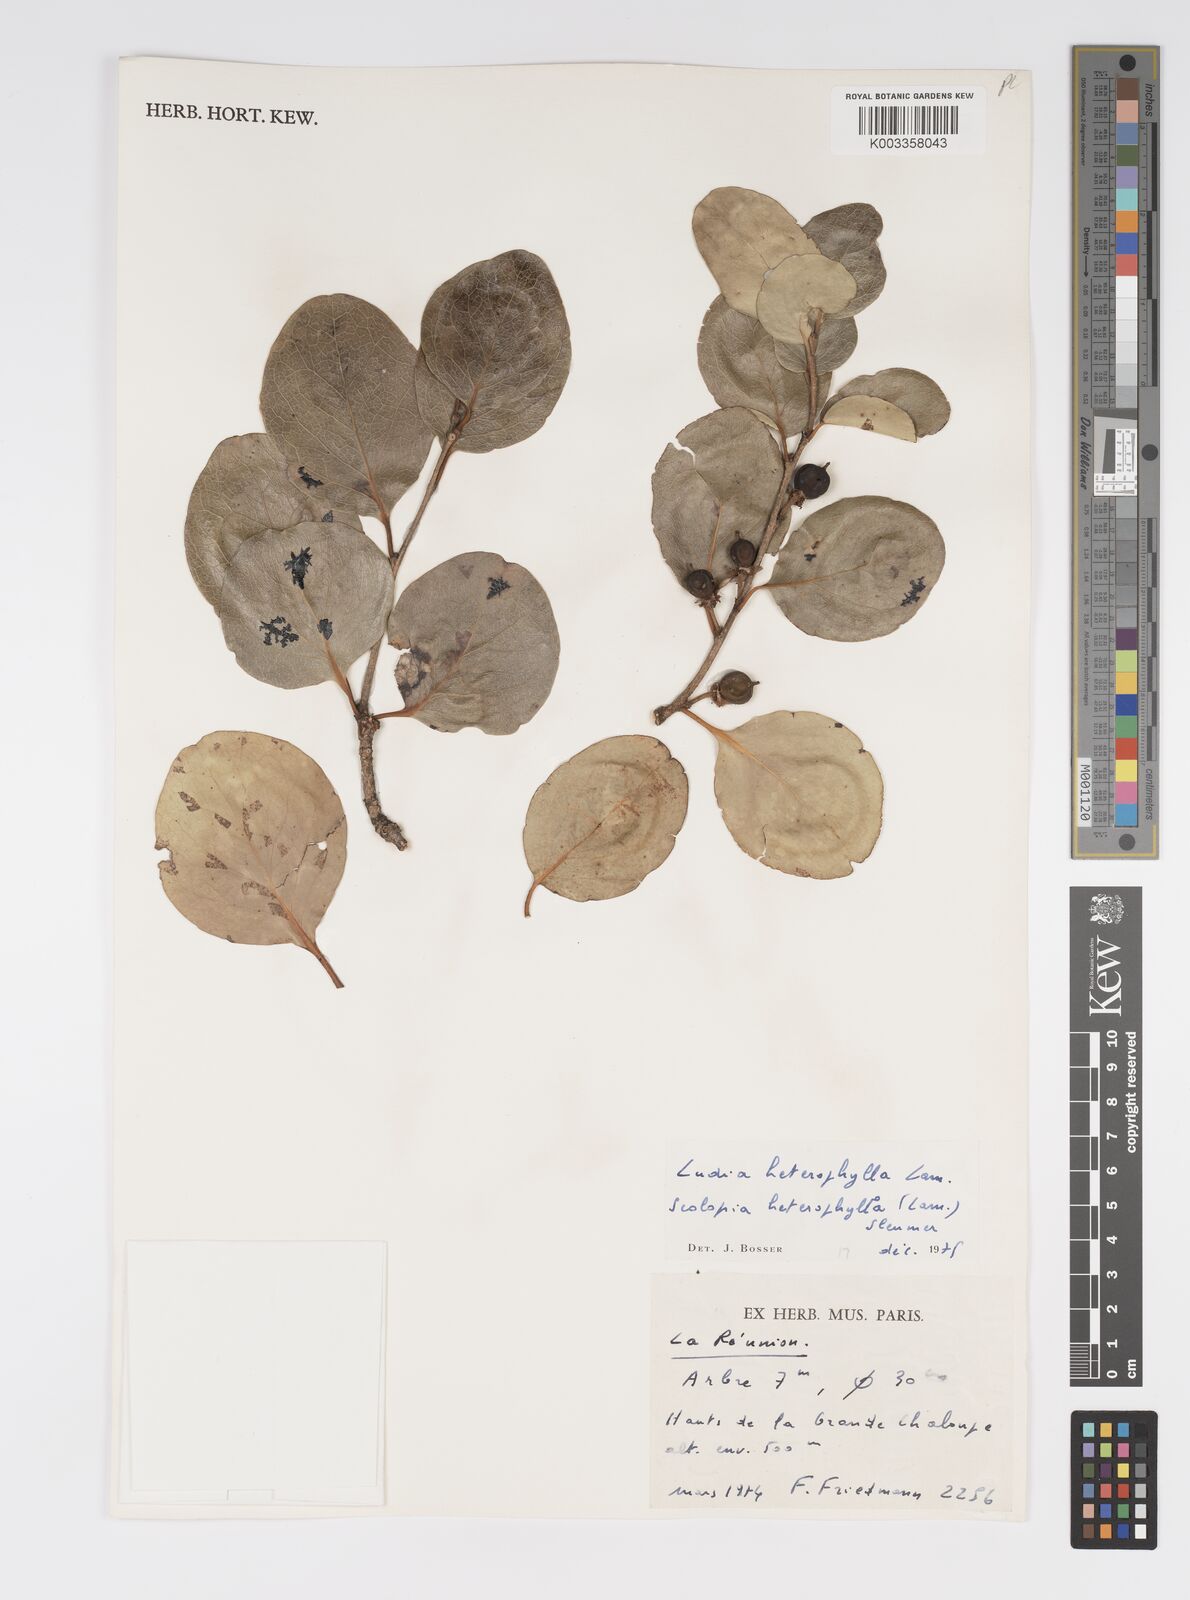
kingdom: Plantae
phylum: Tracheophyta
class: Magnoliopsida
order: Malpighiales
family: Salicaceae
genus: Scolopia
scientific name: Scolopia heterophylla
